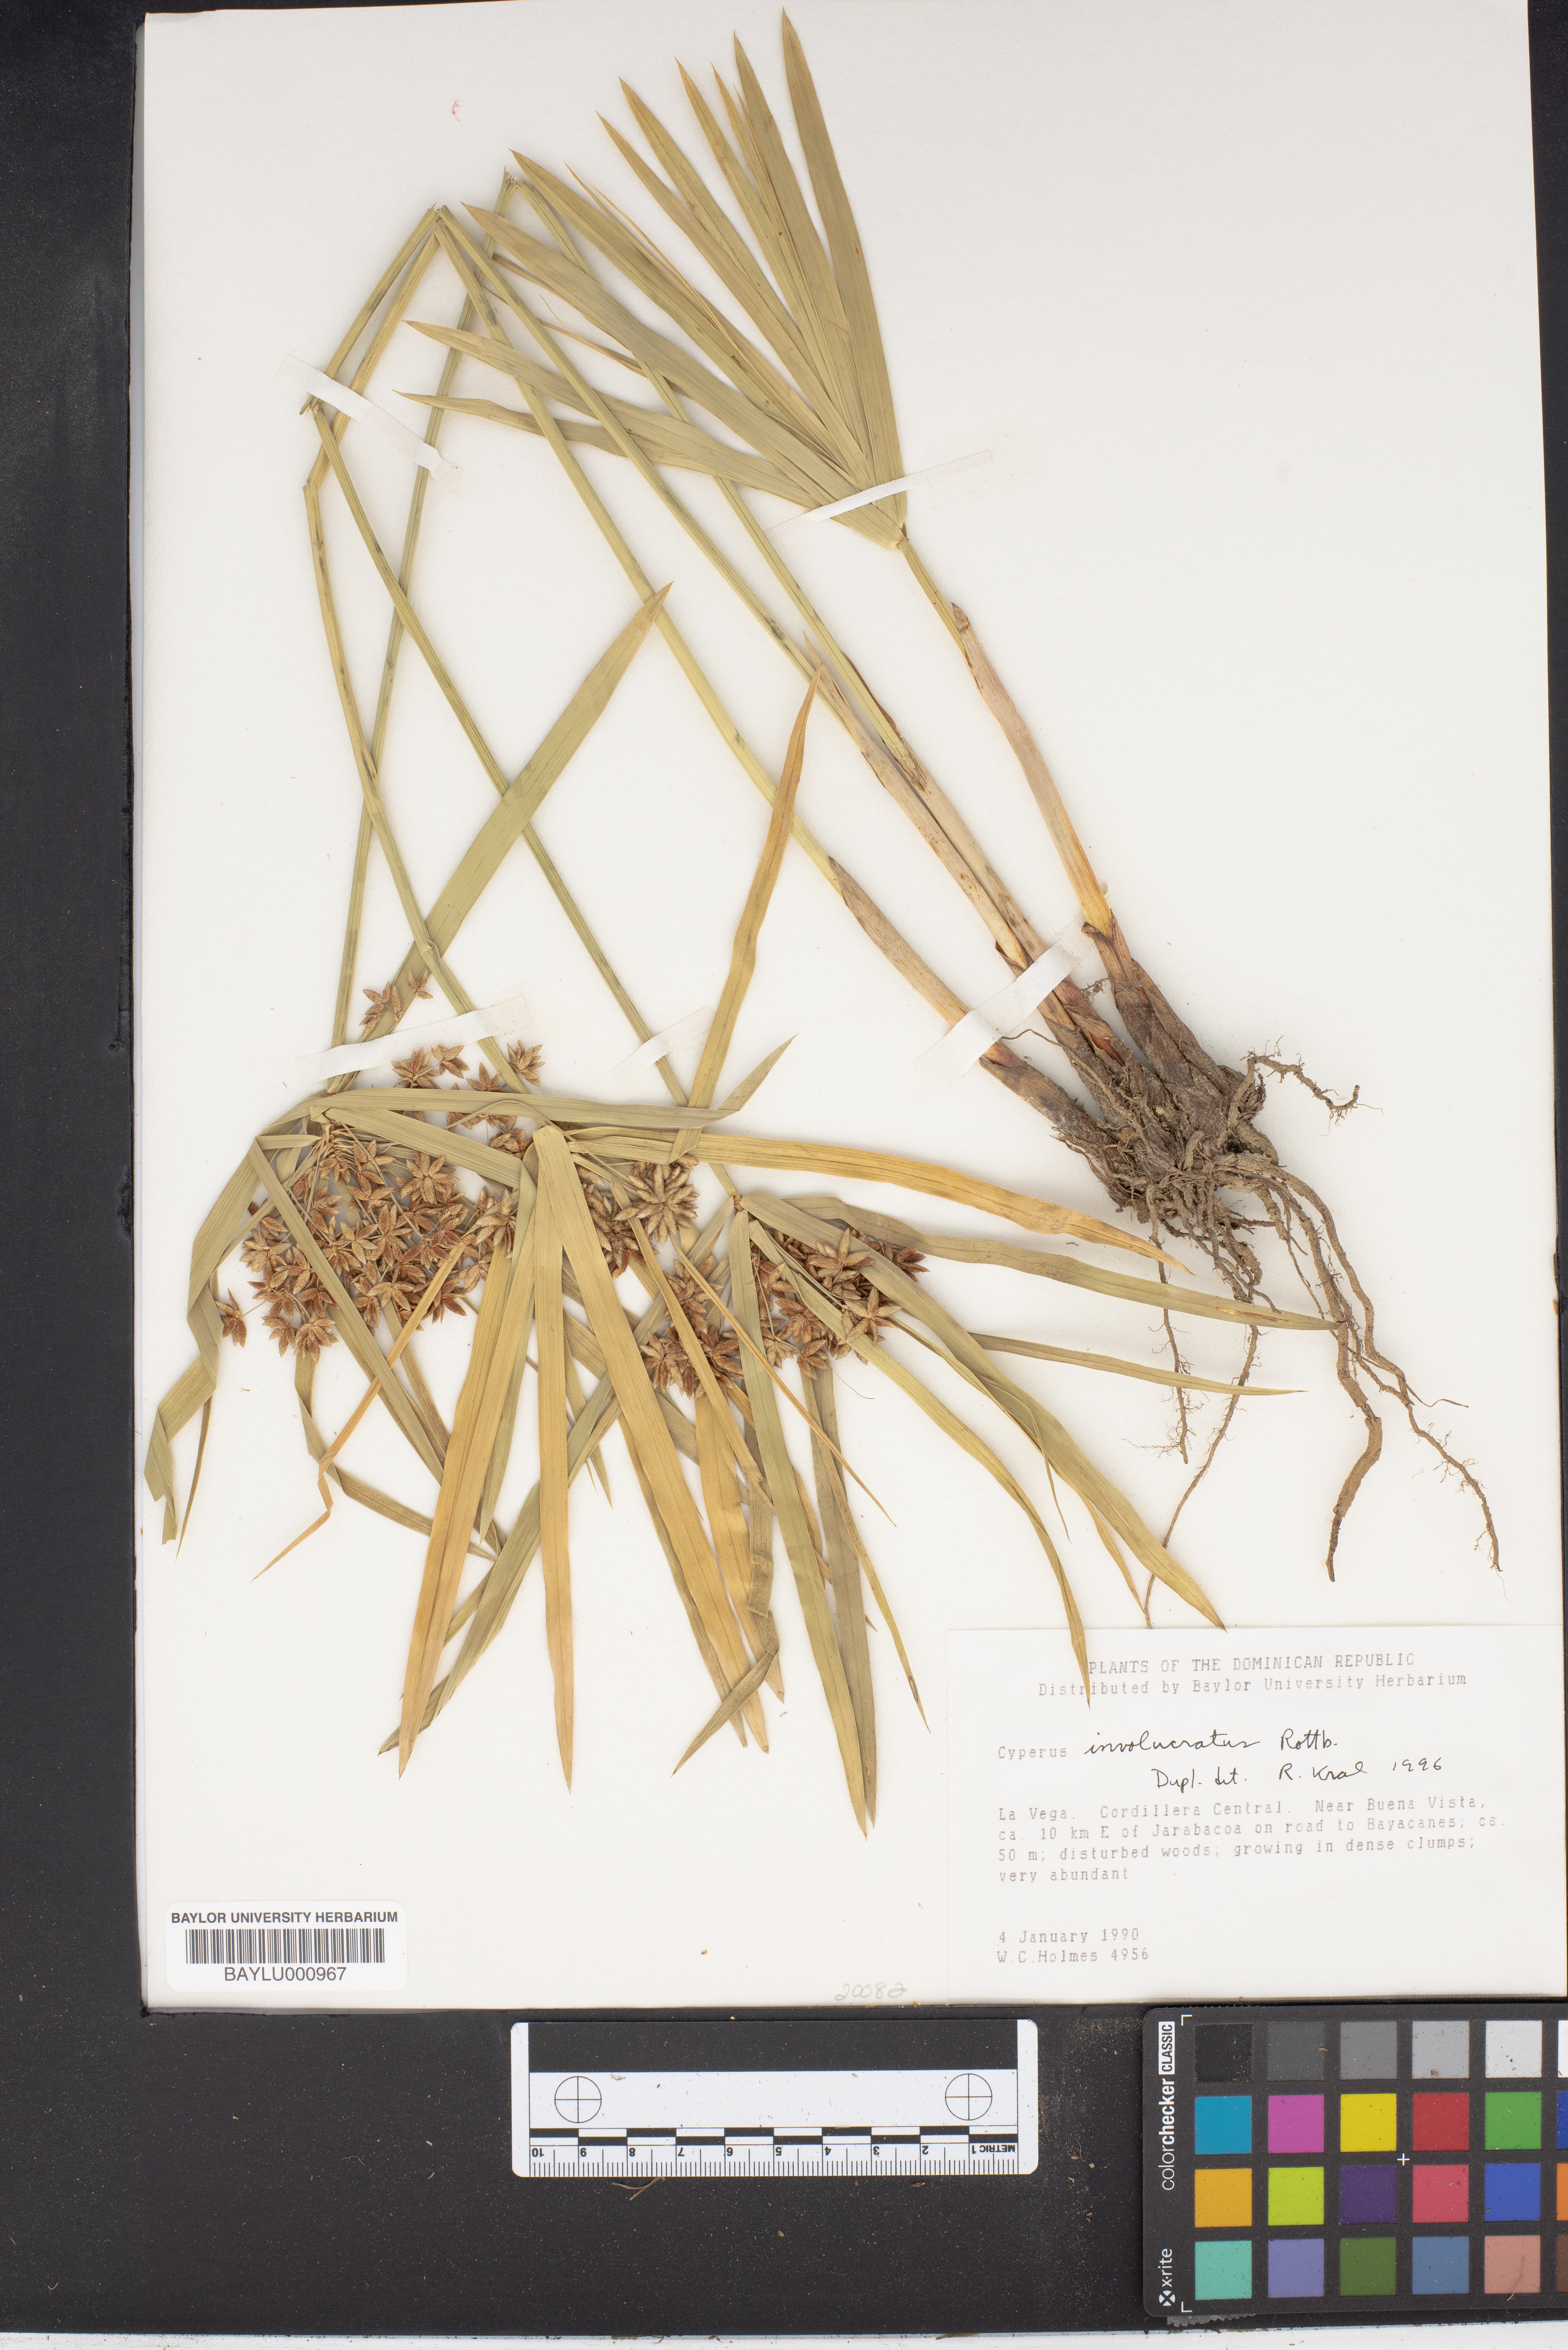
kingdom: Plantae
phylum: Tracheophyta
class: Liliopsida
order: Poales
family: Cyperaceae
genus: Cyperus
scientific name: Cyperus alternifolius
